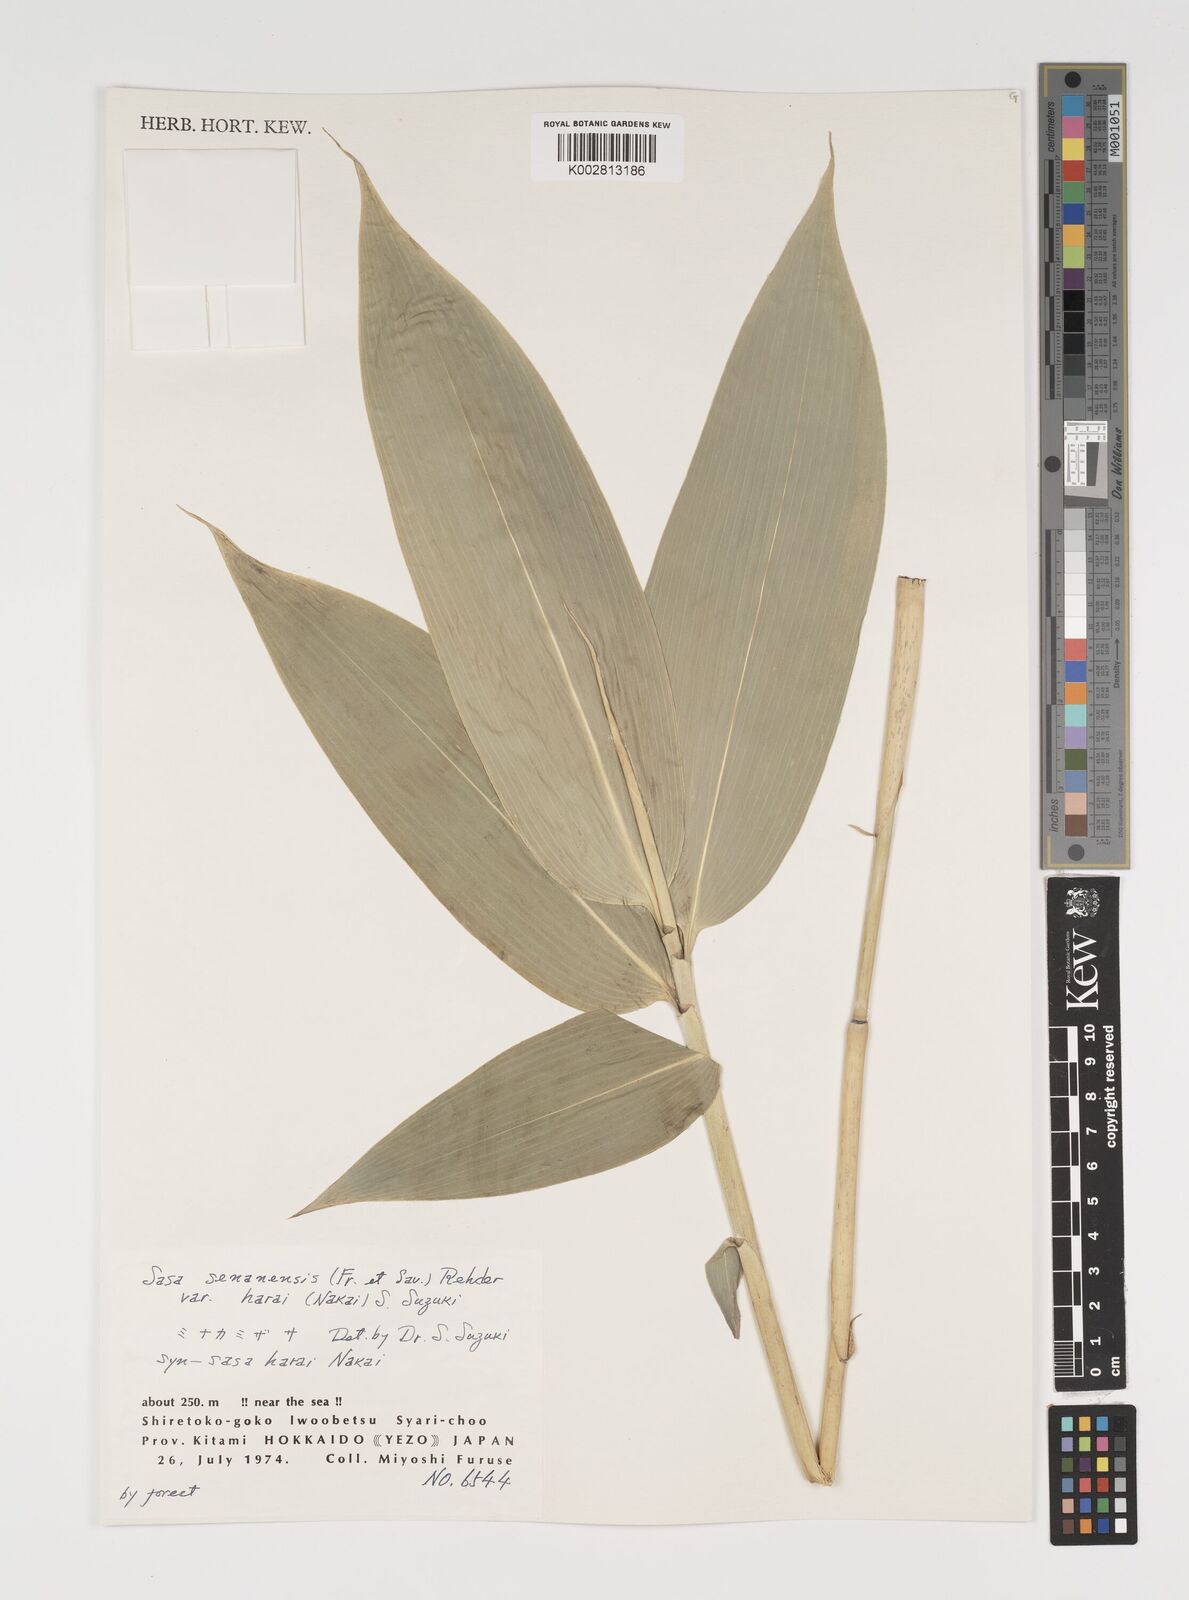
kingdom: Plantae
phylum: Tracheophyta
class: Liliopsida
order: Poales
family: Poaceae
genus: Sasa
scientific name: Sasa senanensis
